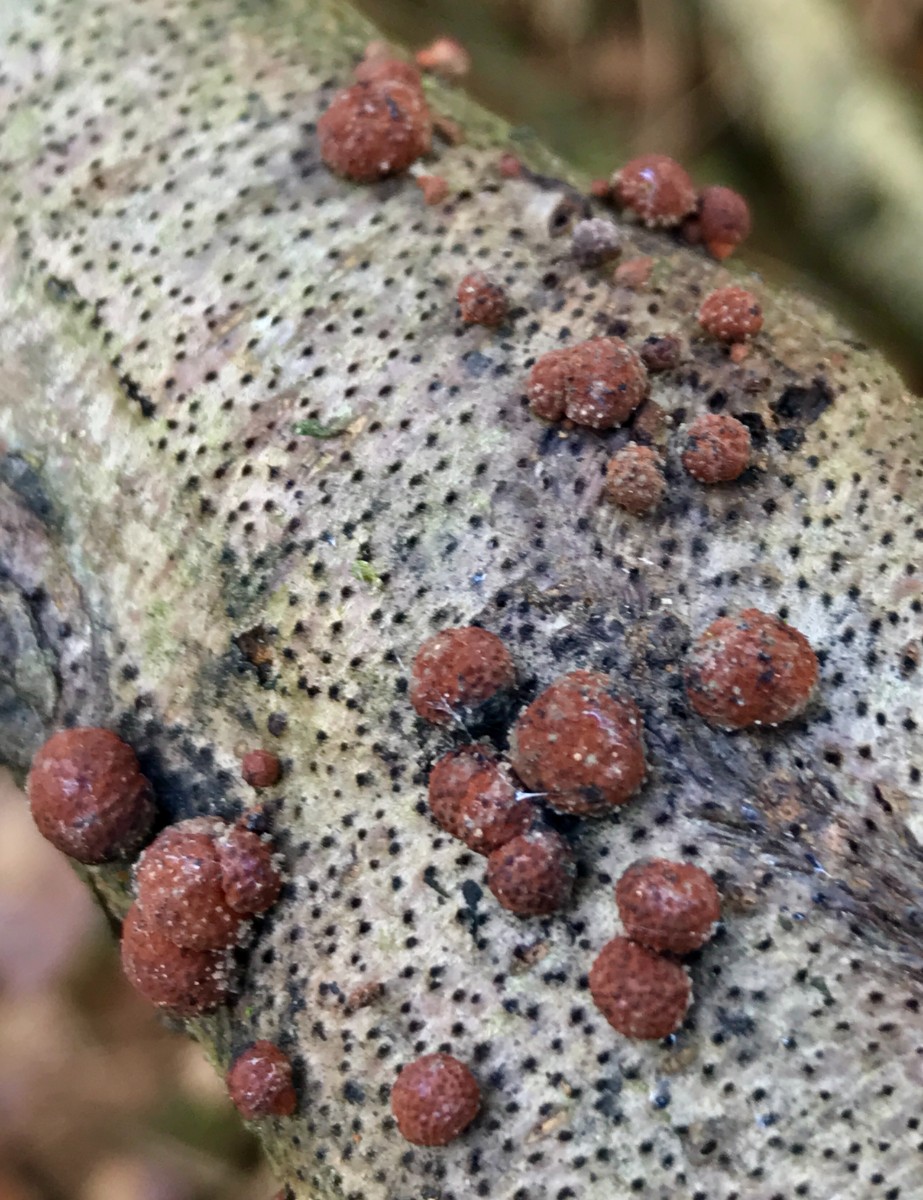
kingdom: Fungi
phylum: Ascomycota
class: Sordariomycetes
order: Xylariales
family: Hypoxylaceae
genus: Hypoxylon
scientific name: Hypoxylon fragiforme
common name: kuljordbær
